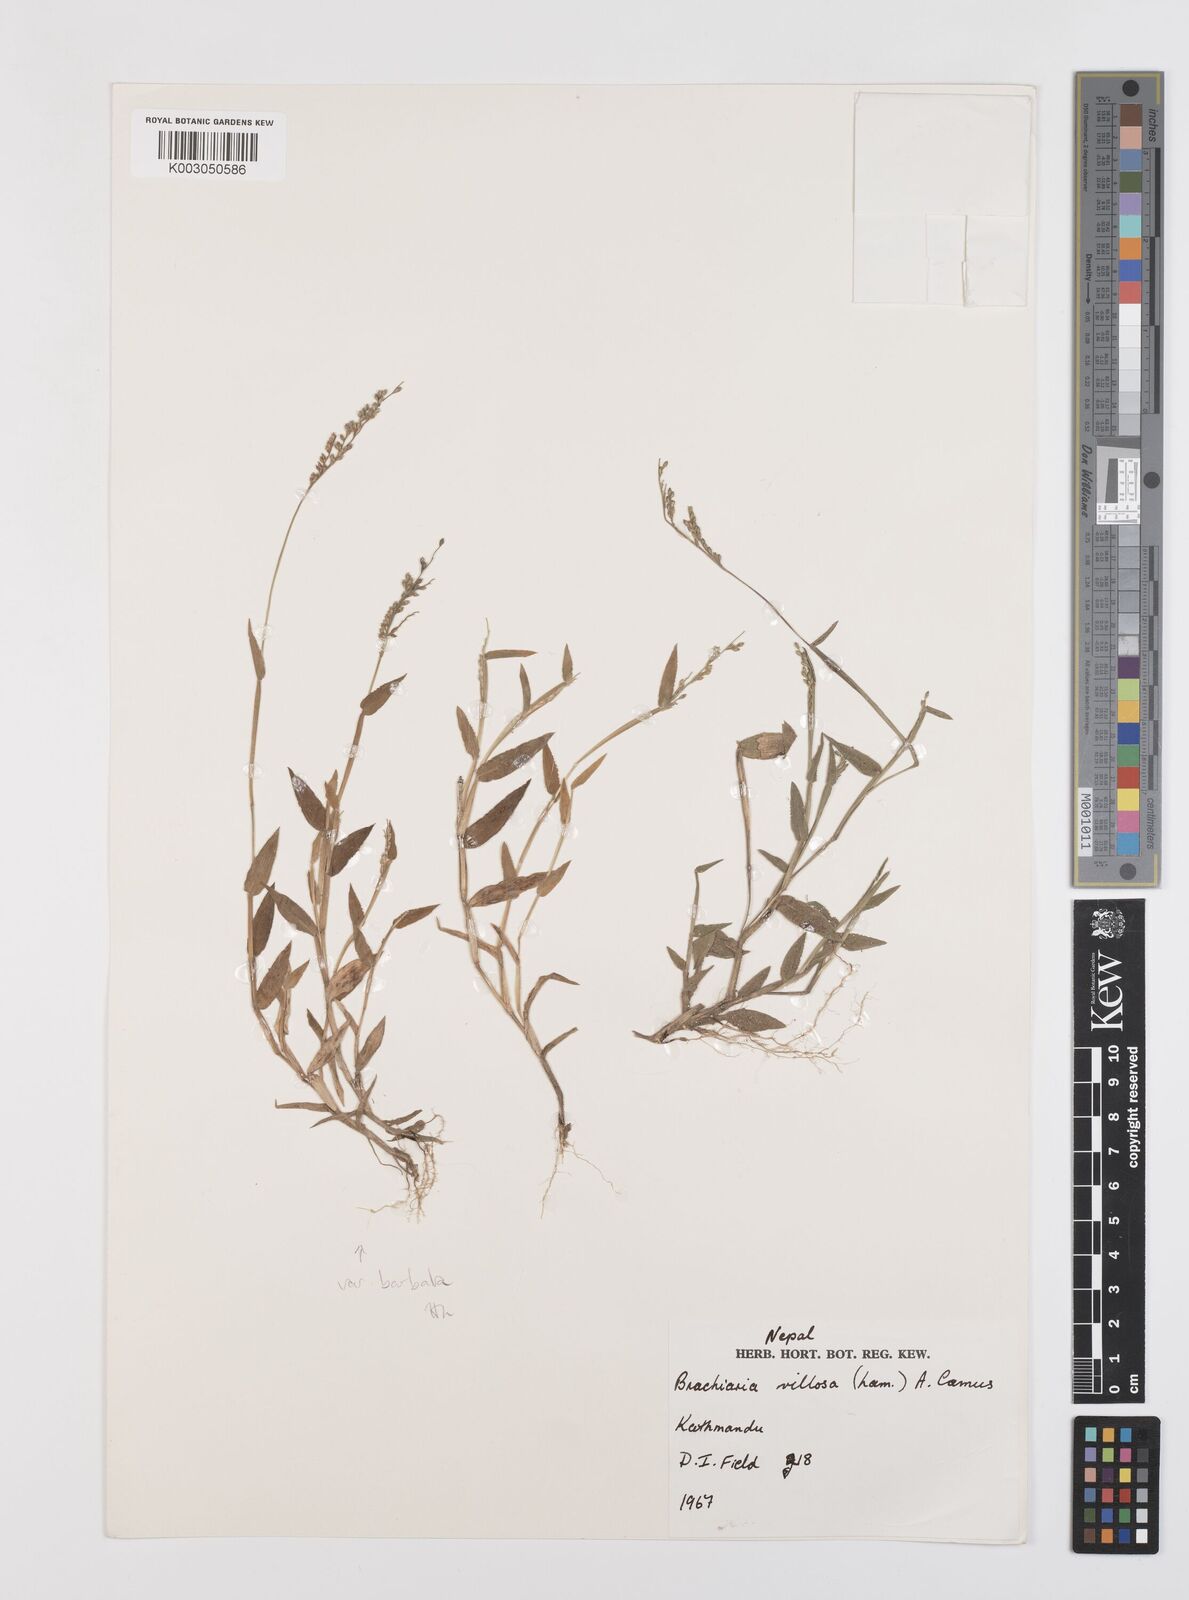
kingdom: Plantae
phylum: Tracheophyta
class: Liliopsida
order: Poales
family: Poaceae
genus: Urochloa
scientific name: Urochloa villosa
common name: Hairy signalgrass
